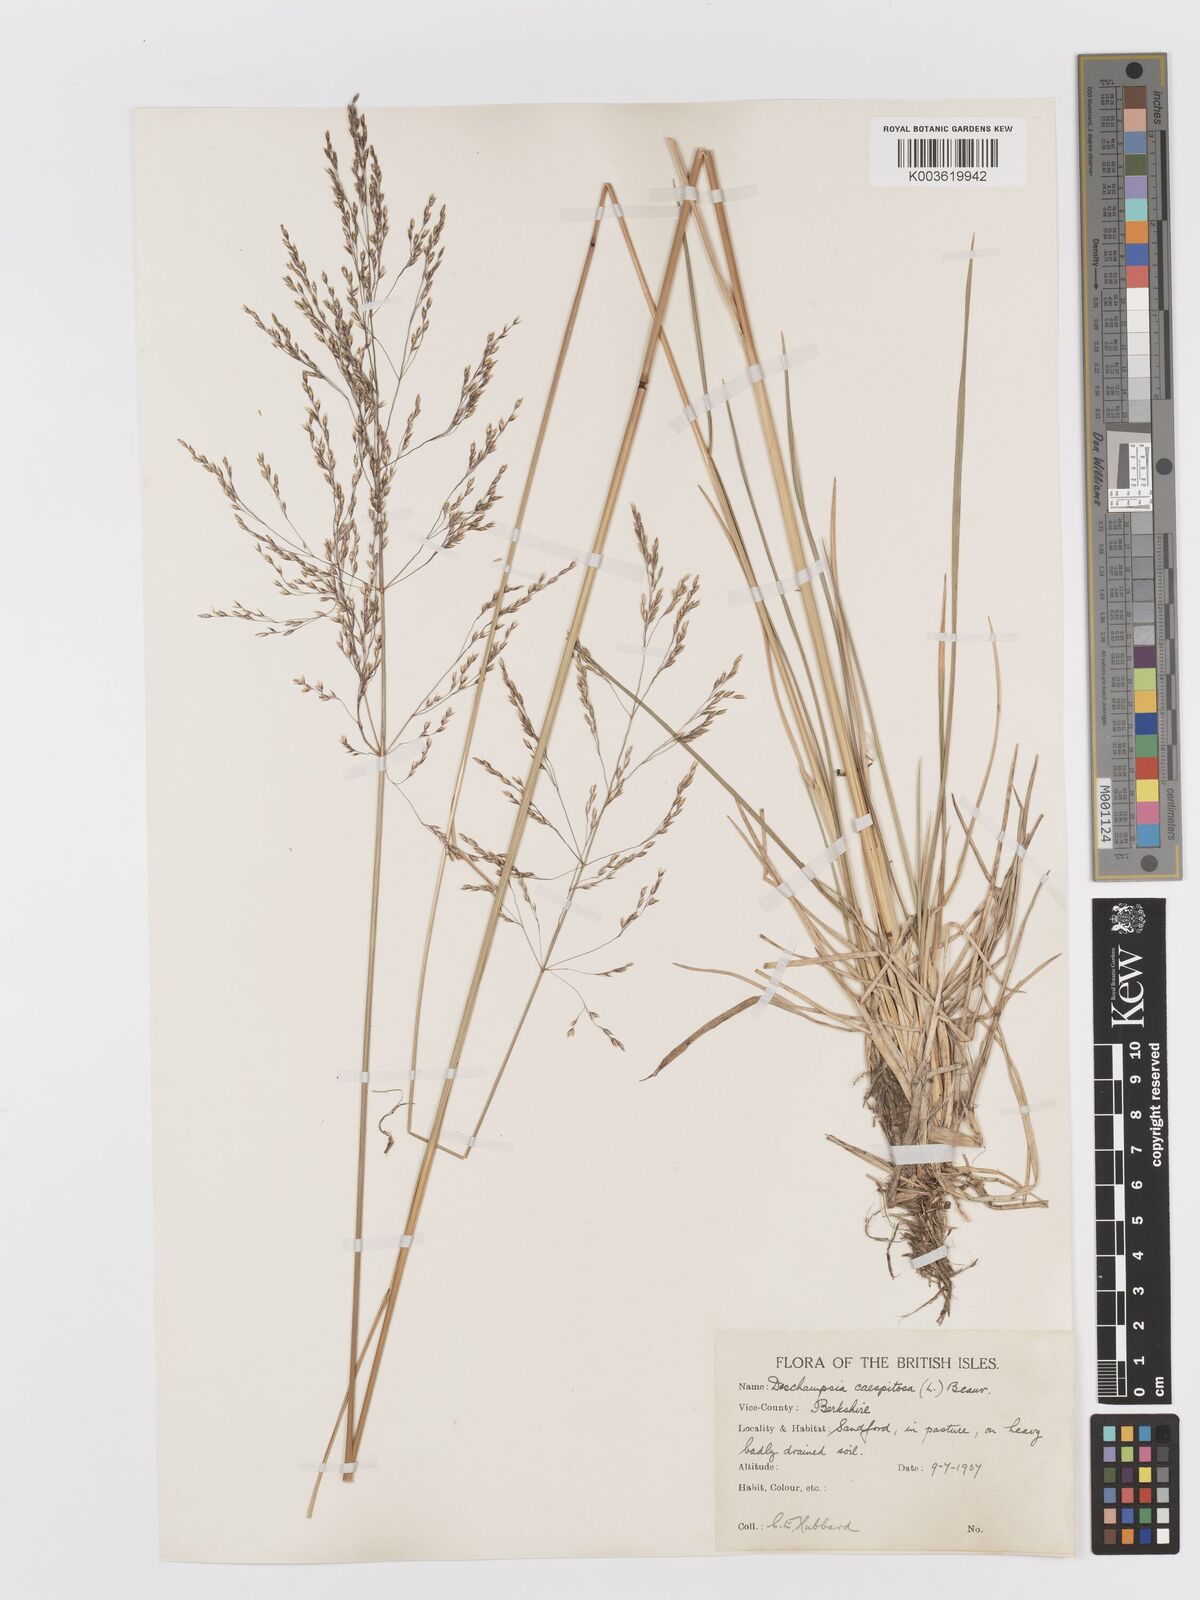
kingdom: Plantae
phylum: Tracheophyta
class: Liliopsida
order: Poales
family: Poaceae
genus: Deschampsia
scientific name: Deschampsia
